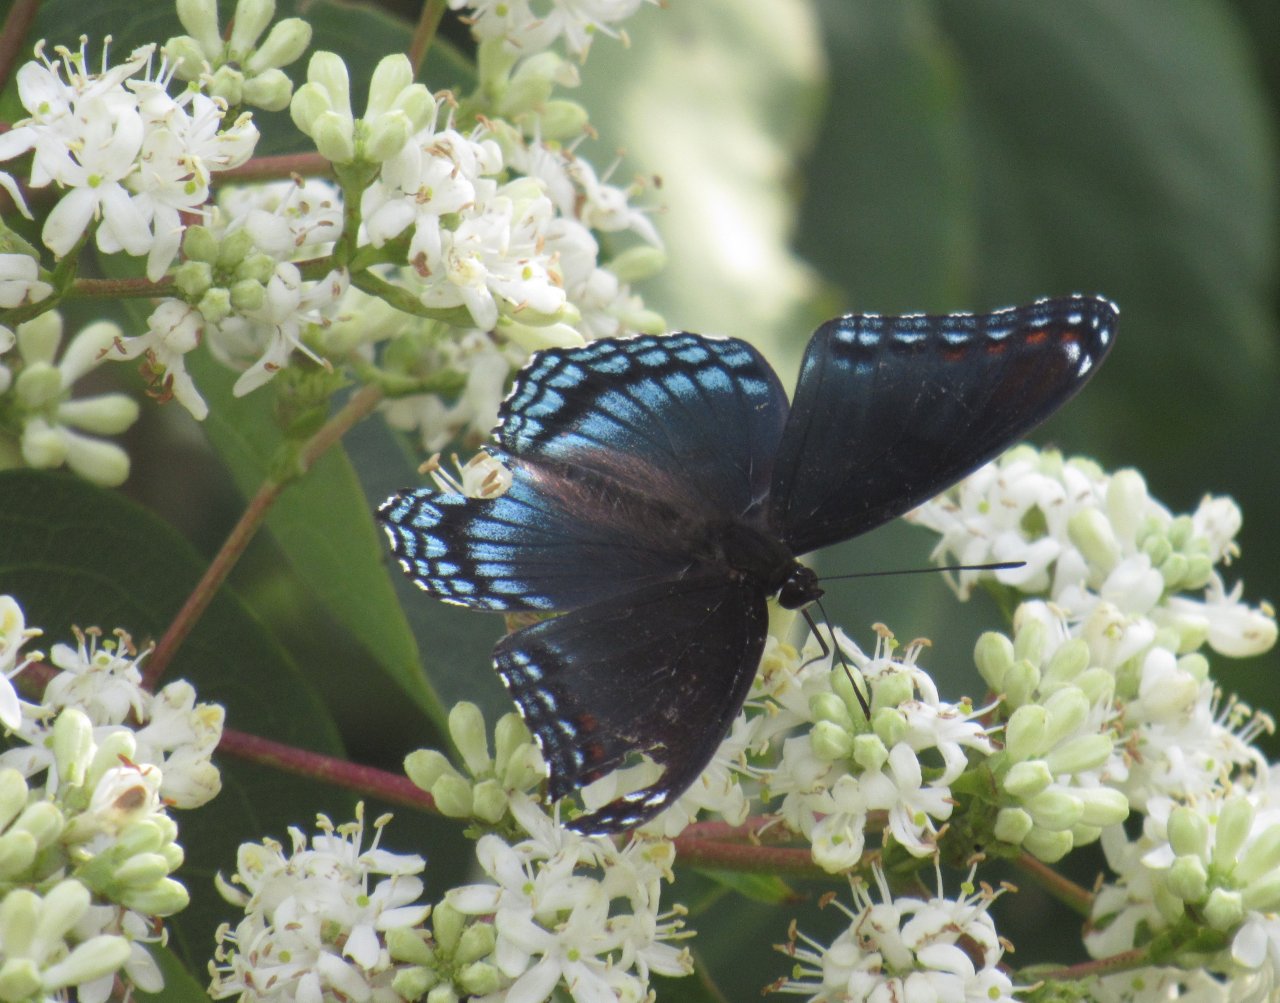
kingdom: Animalia
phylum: Arthropoda
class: Insecta
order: Lepidoptera
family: Nymphalidae
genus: Limenitis
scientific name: Limenitis astyanax
